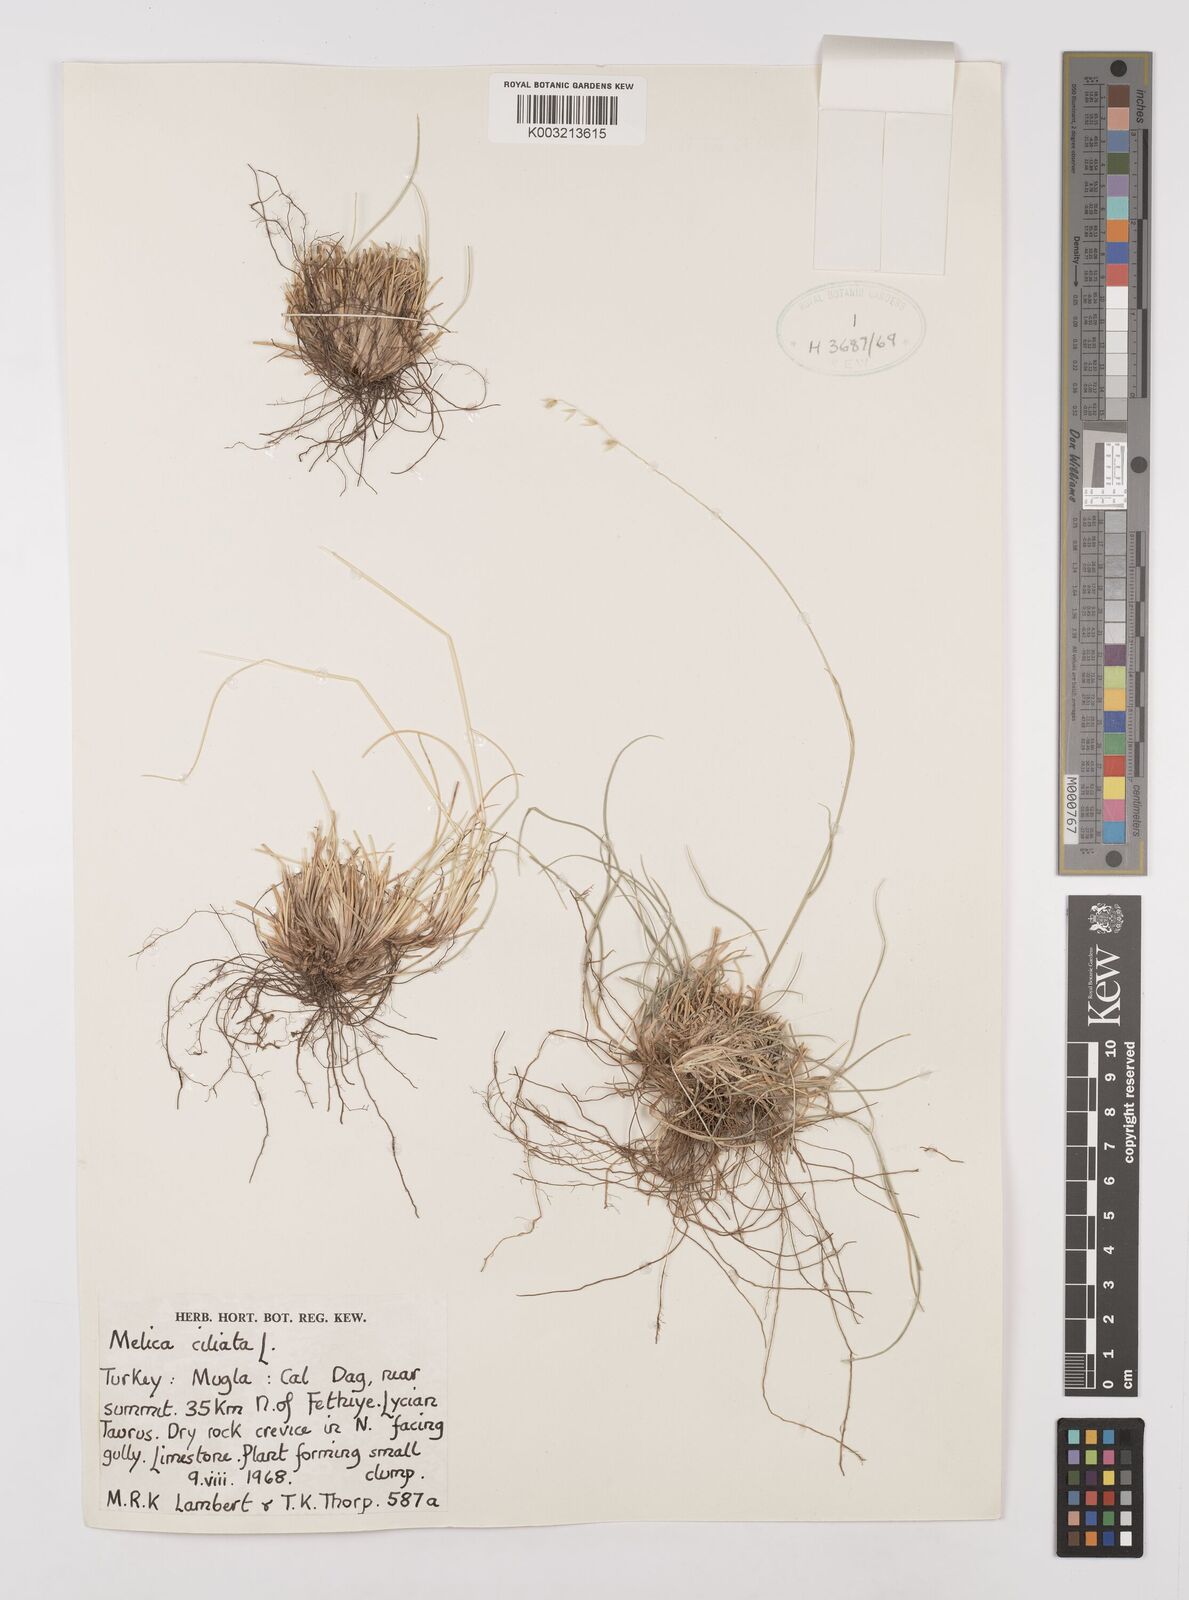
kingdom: Plantae
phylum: Tracheophyta
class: Liliopsida
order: Poales
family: Poaceae
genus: Melica
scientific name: Melica ciliata
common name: Hairy melicgrass
